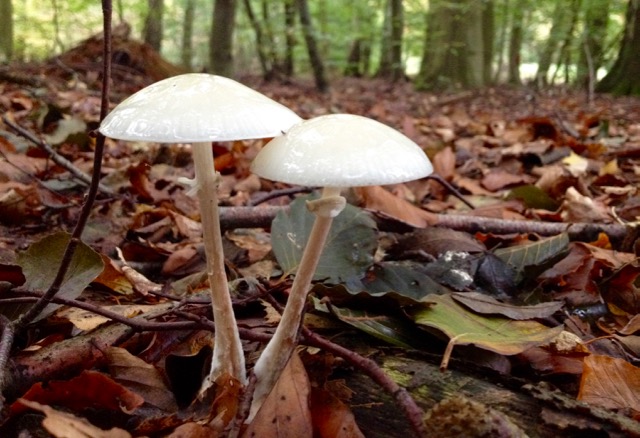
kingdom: Fungi
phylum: Basidiomycota
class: Agaricomycetes
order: Agaricales
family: Physalacriaceae
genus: Mucidula
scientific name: Mucidula mucida
